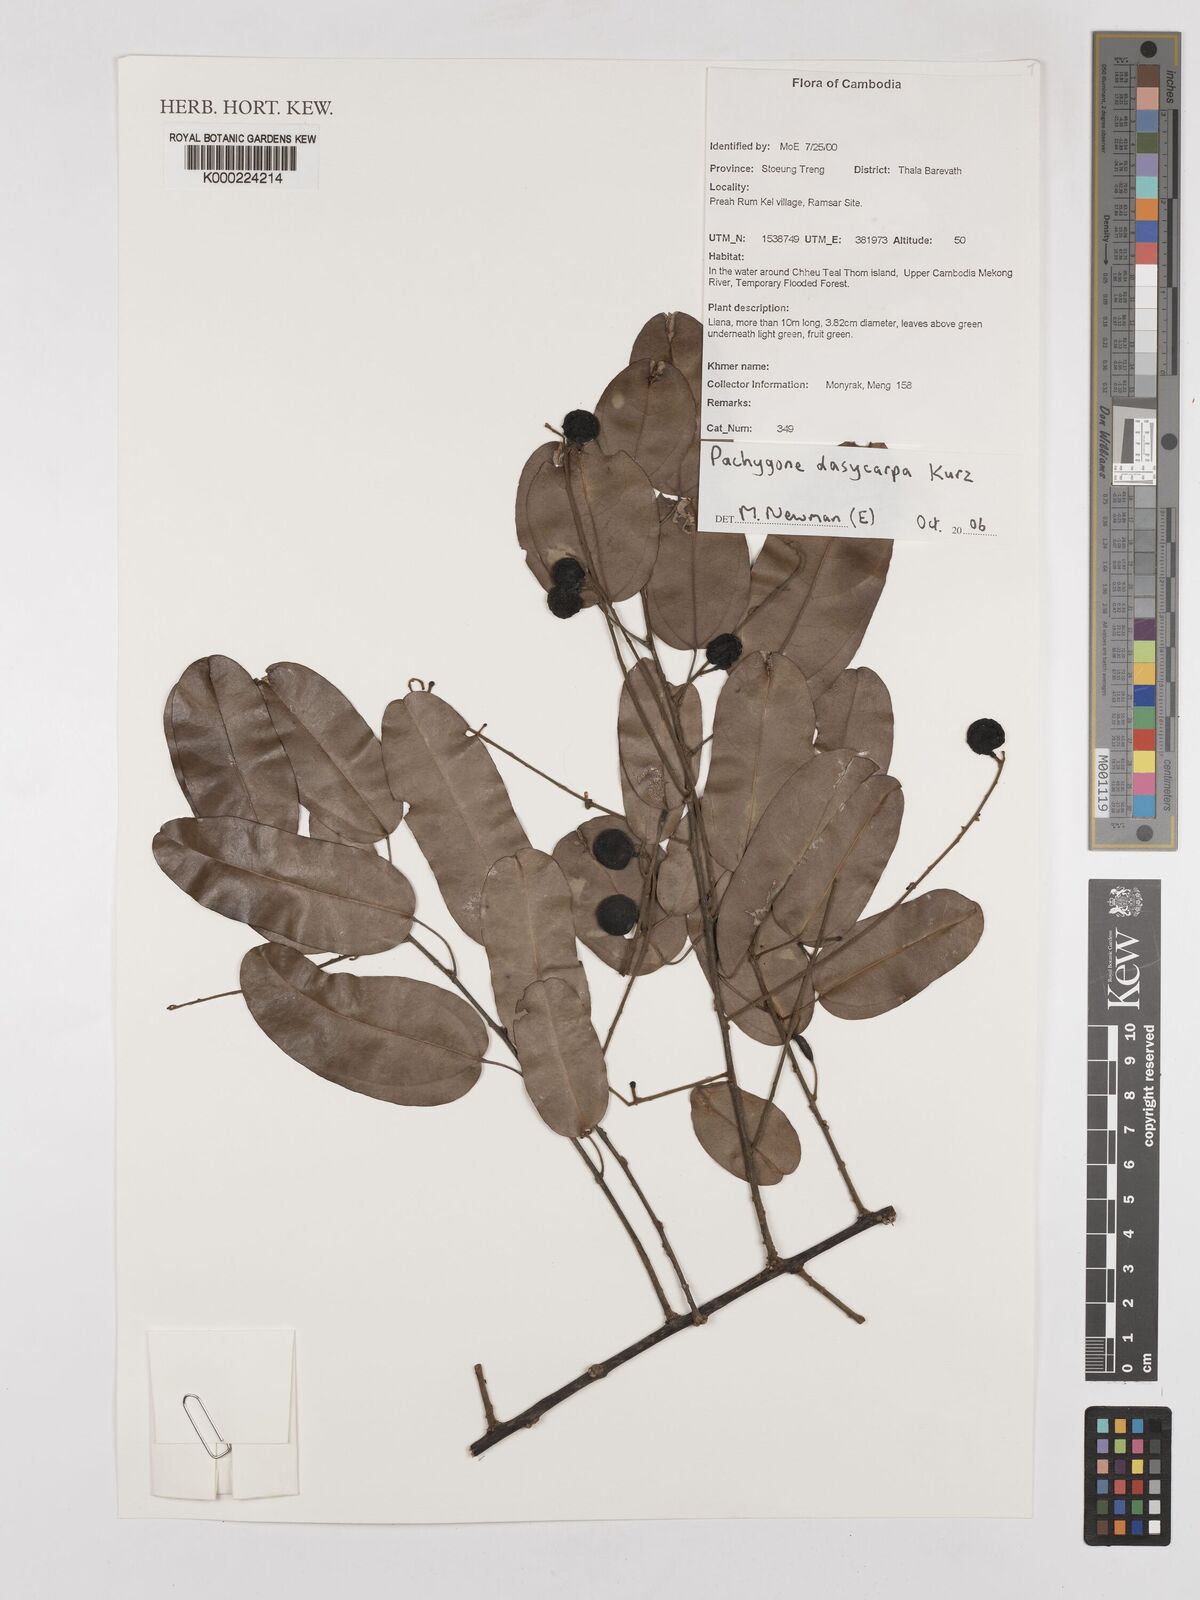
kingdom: Plantae
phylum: Tracheophyta
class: Magnoliopsida
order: Ranunculales
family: Menispermaceae
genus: Pachygone
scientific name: Pachygone dasycarpa
